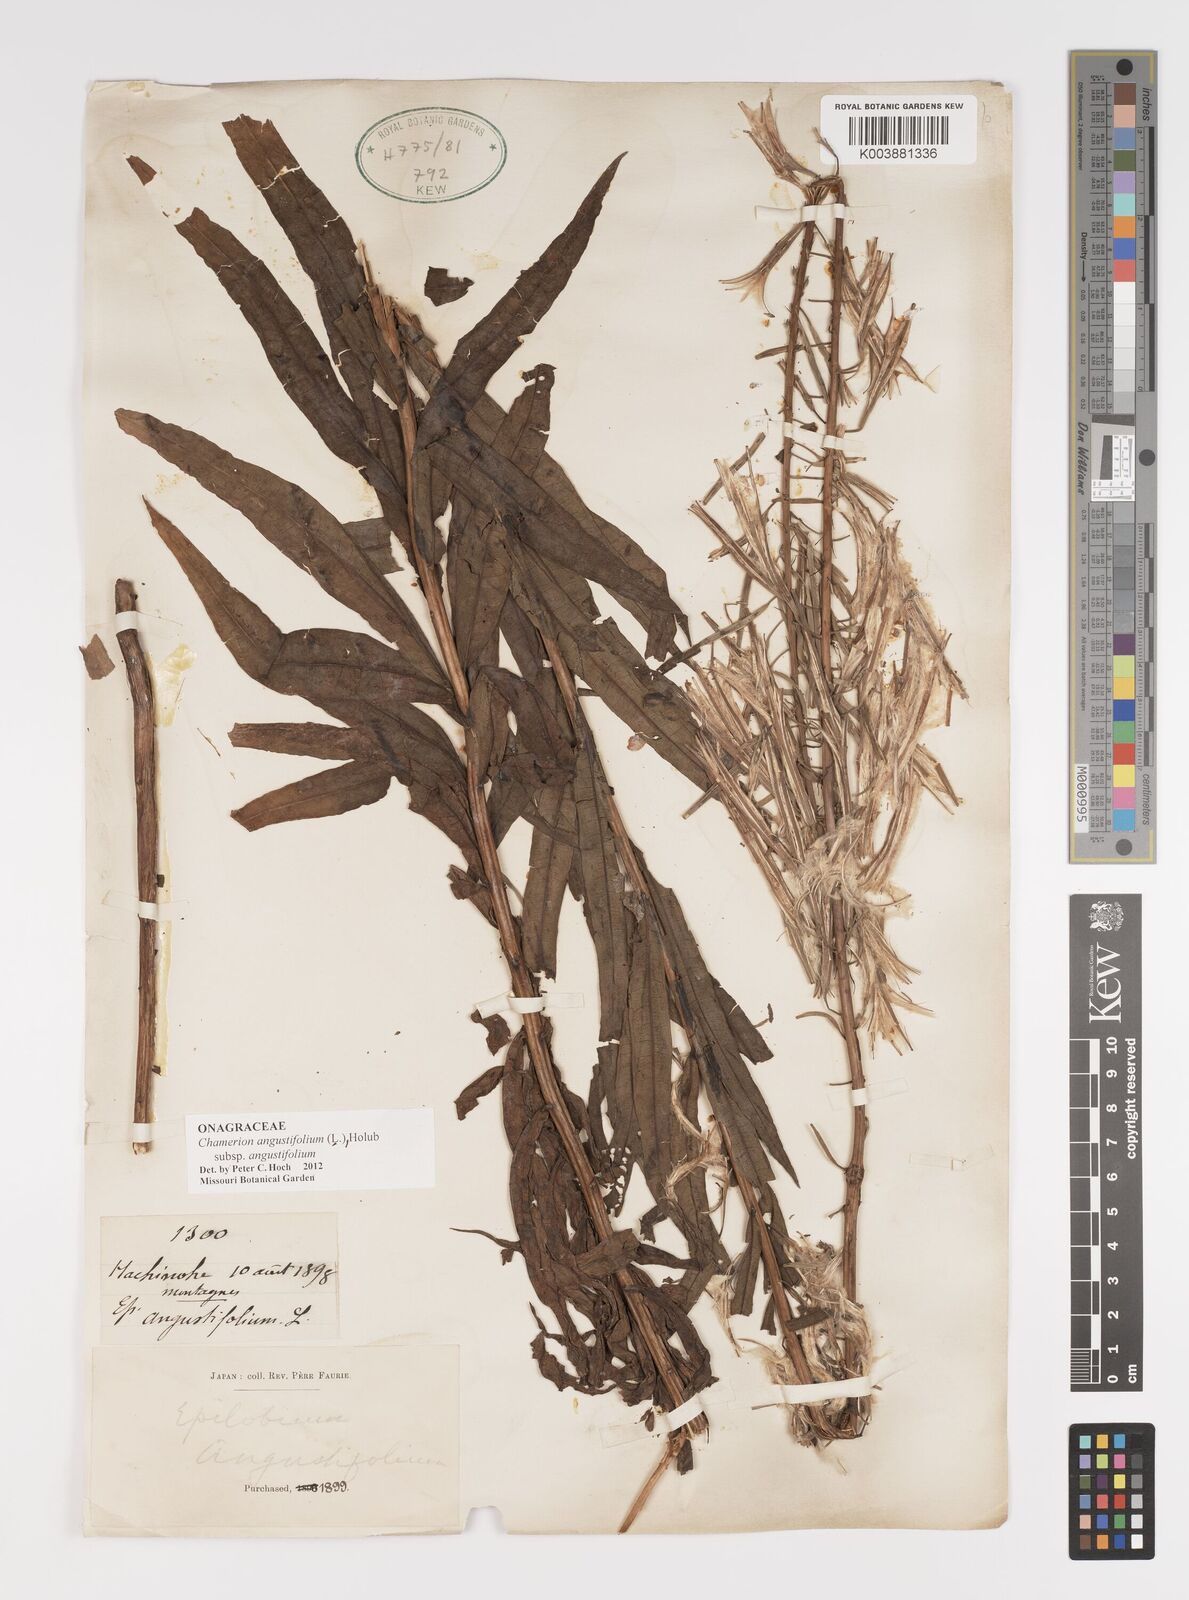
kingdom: Plantae
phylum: Tracheophyta
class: Magnoliopsida
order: Myrtales
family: Onagraceae
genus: Chamaenerion
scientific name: Chamaenerion angustifolium
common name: Fireweed
